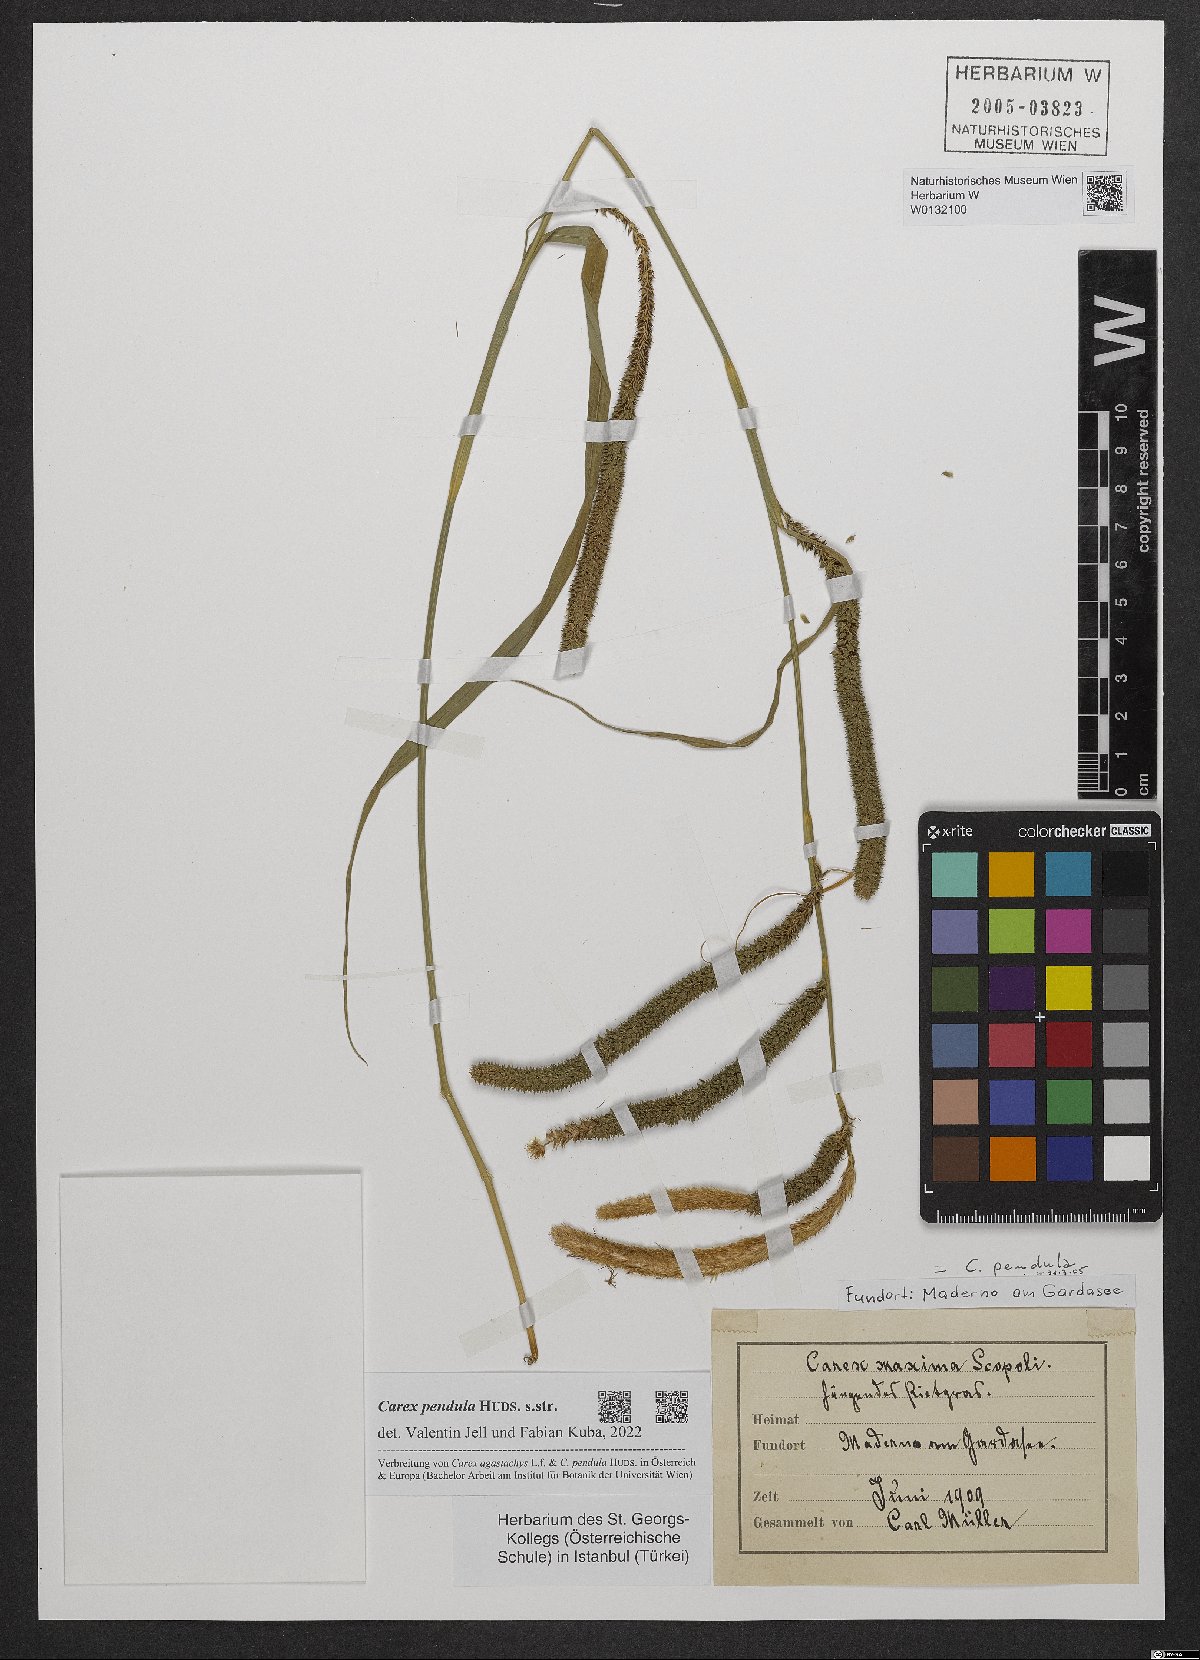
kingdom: Plantae
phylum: Tracheophyta
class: Liliopsida
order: Poales
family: Cyperaceae
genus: Carex
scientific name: Carex pendula
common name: Pendulous sedge
